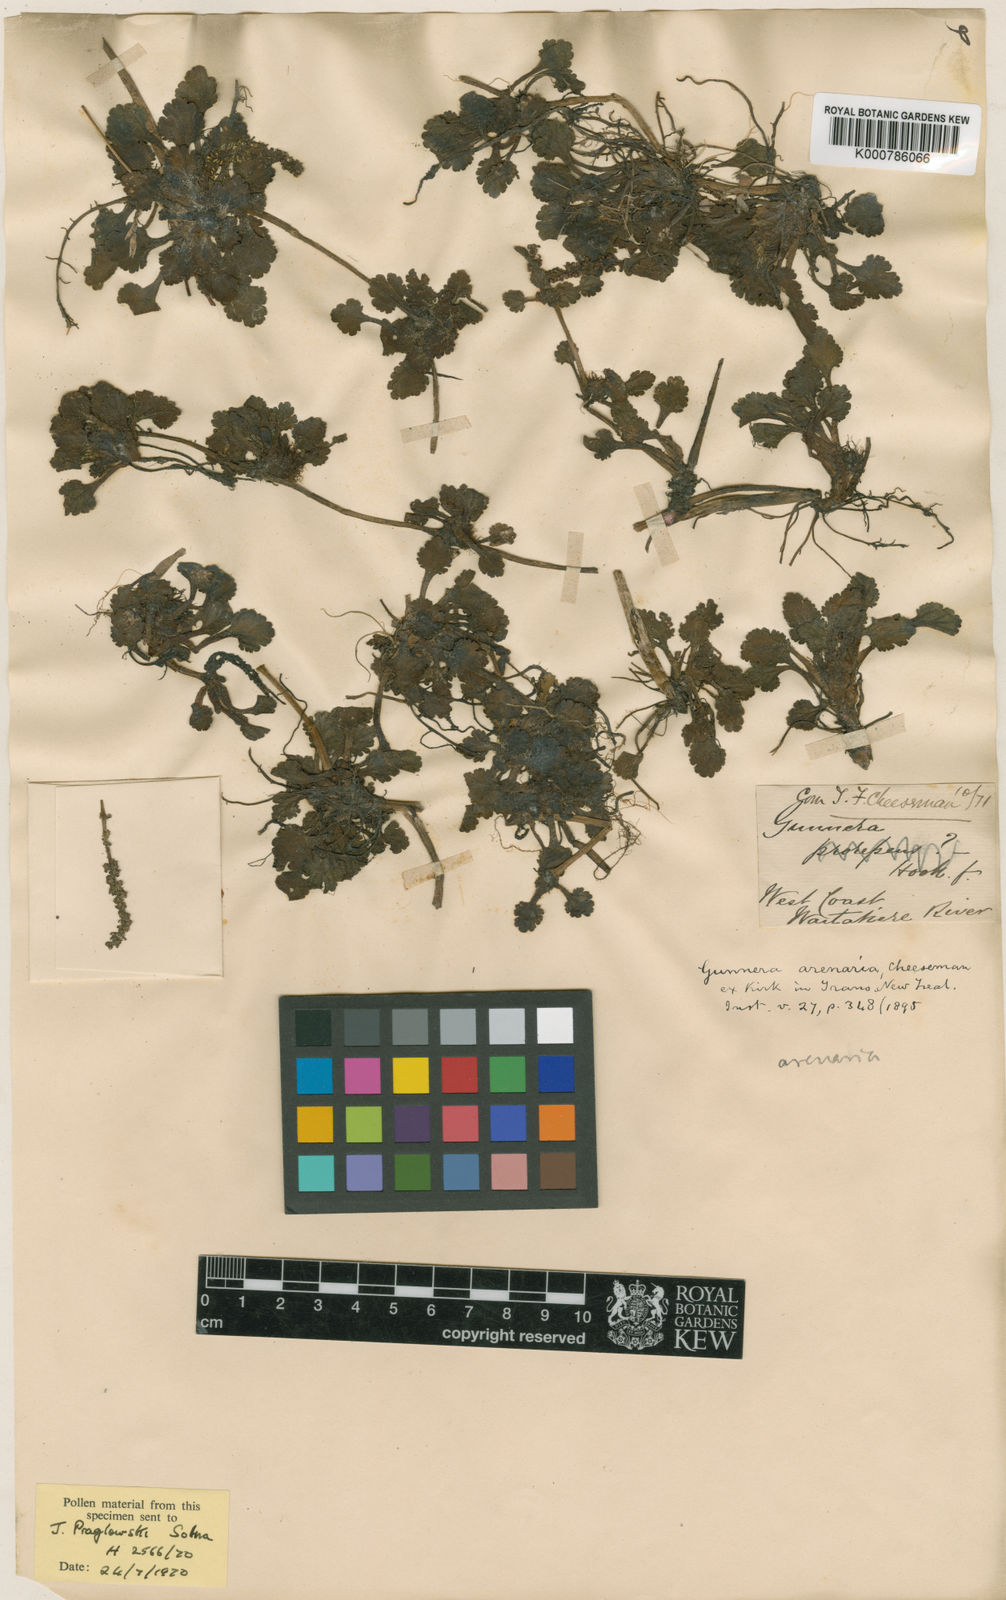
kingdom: Plantae
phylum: Tracheophyta
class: Magnoliopsida
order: Gunnerales
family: Gunneraceae
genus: Gunnera
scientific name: Gunnera dentata
